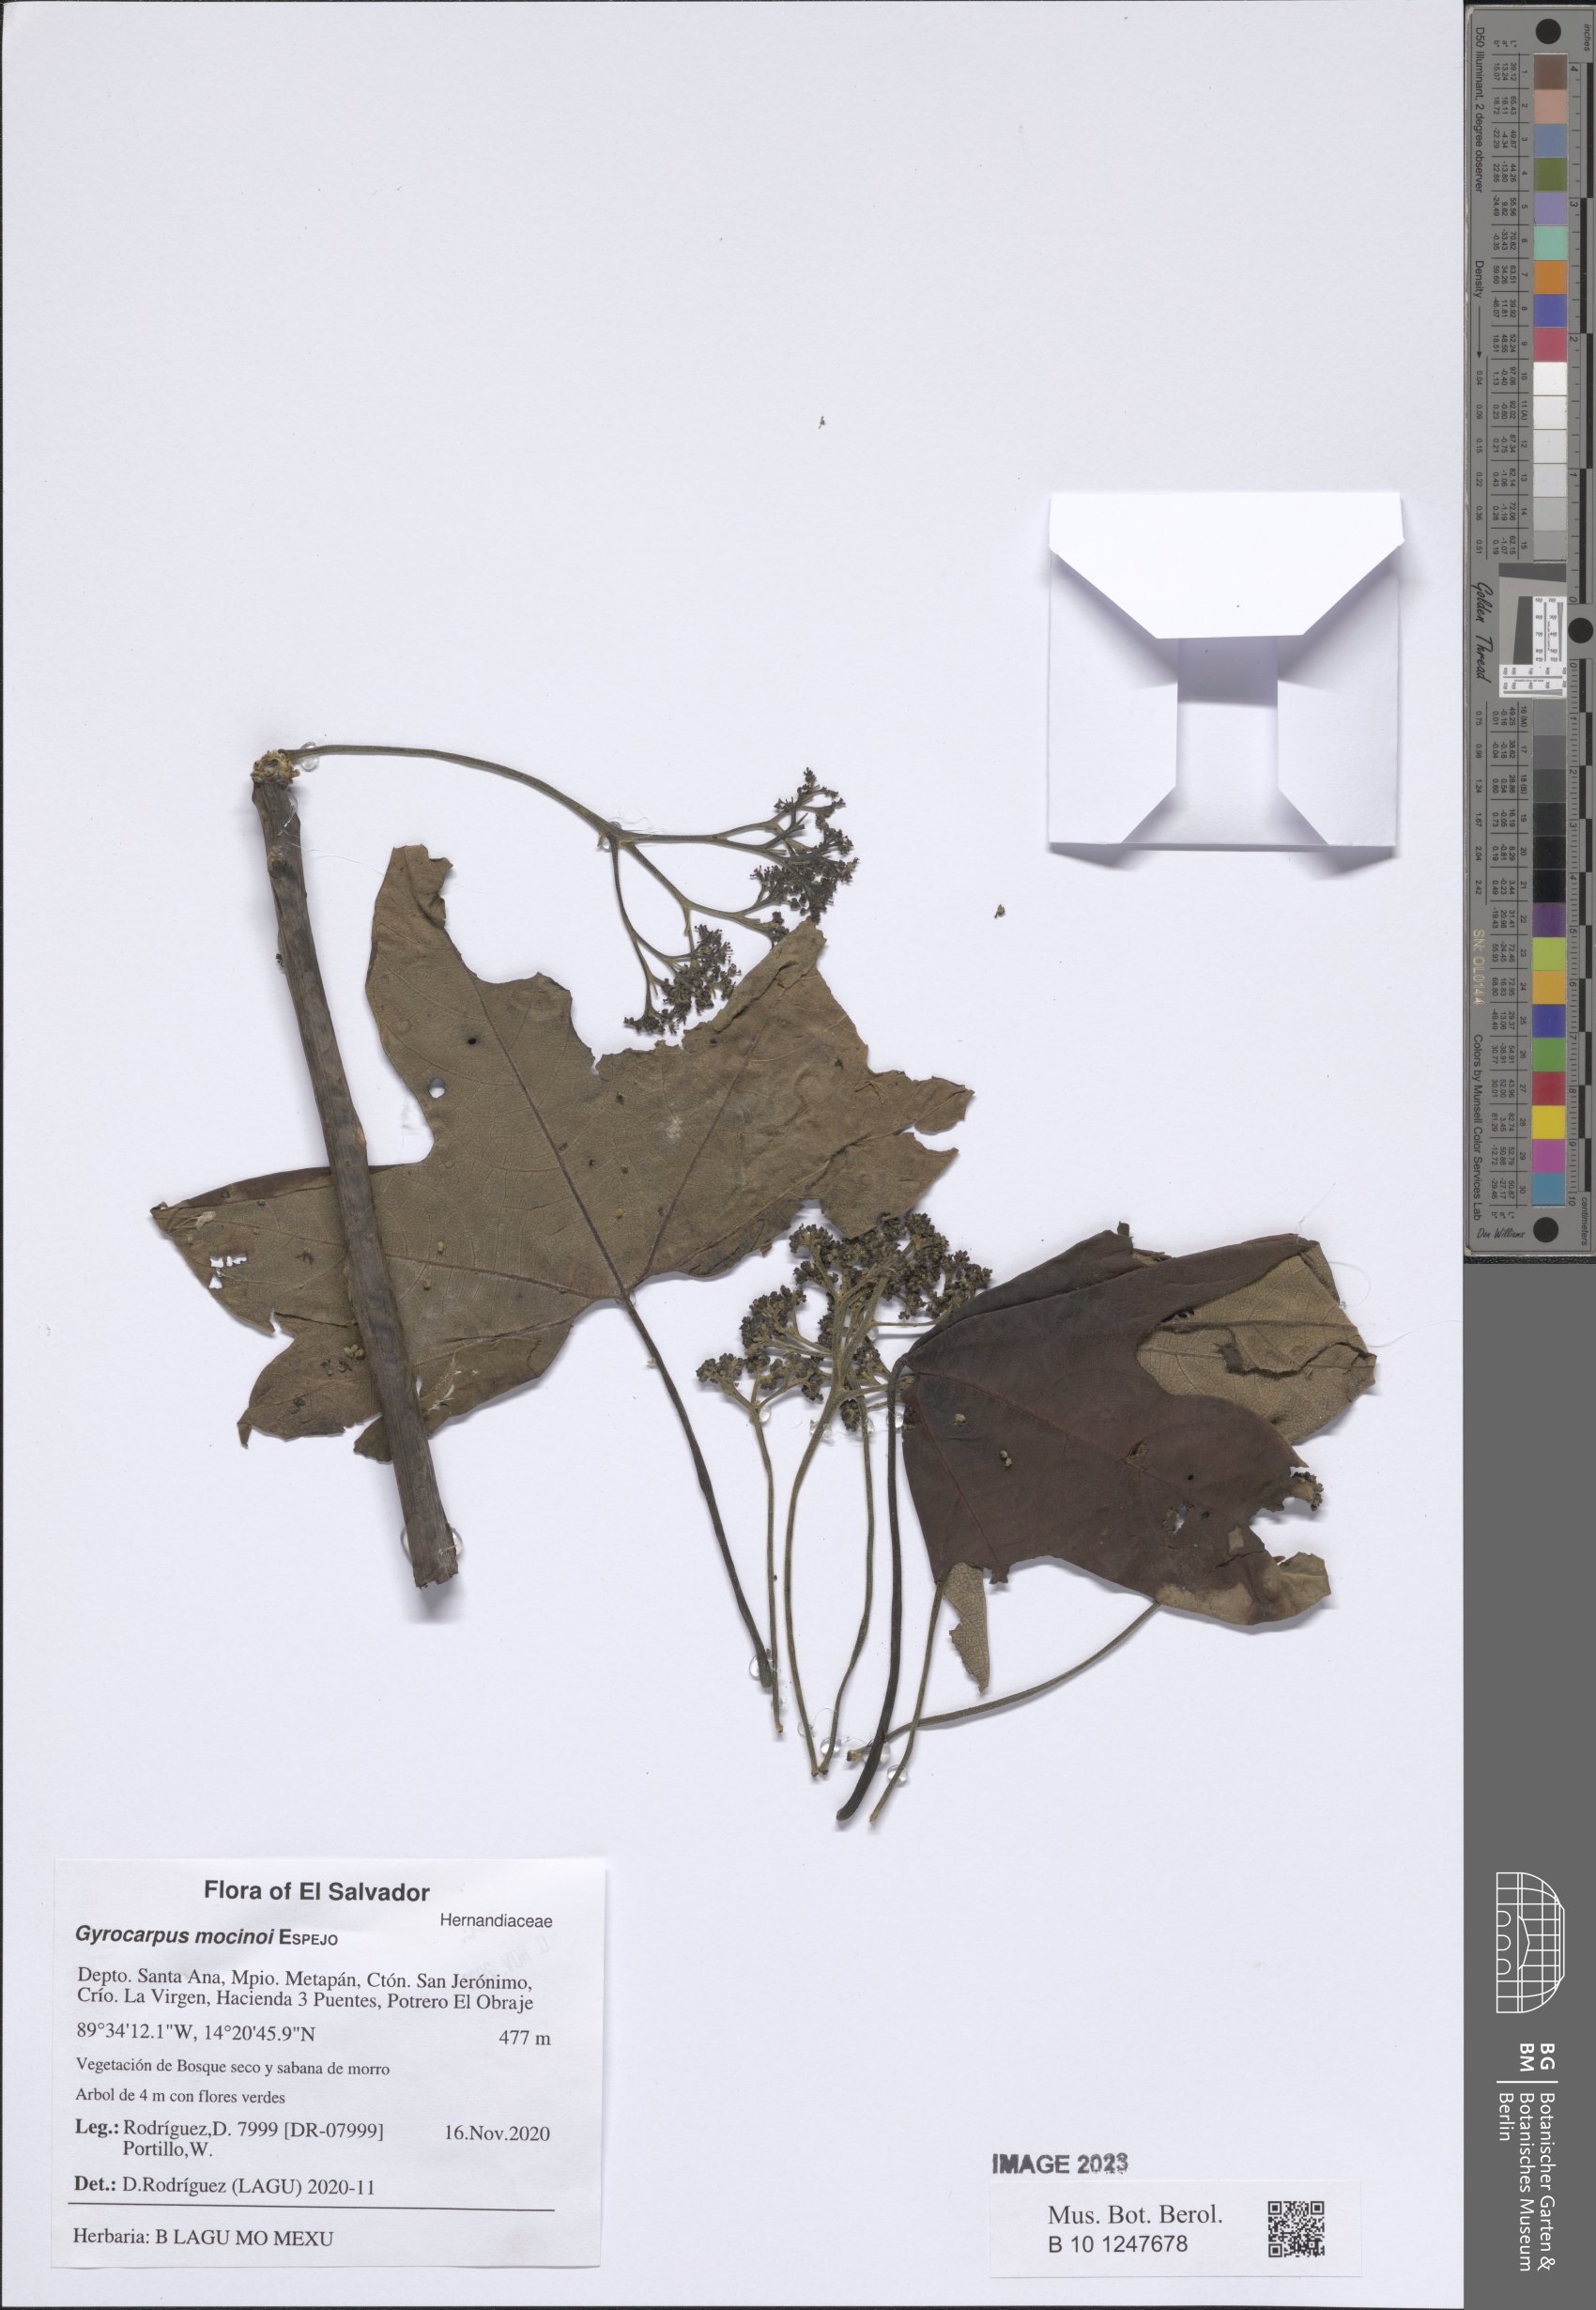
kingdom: Plantae
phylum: Tracheophyta
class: Magnoliopsida
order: Laurales
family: Hernandiaceae
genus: Gyrocarpus
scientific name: Gyrocarpus mocinoi
